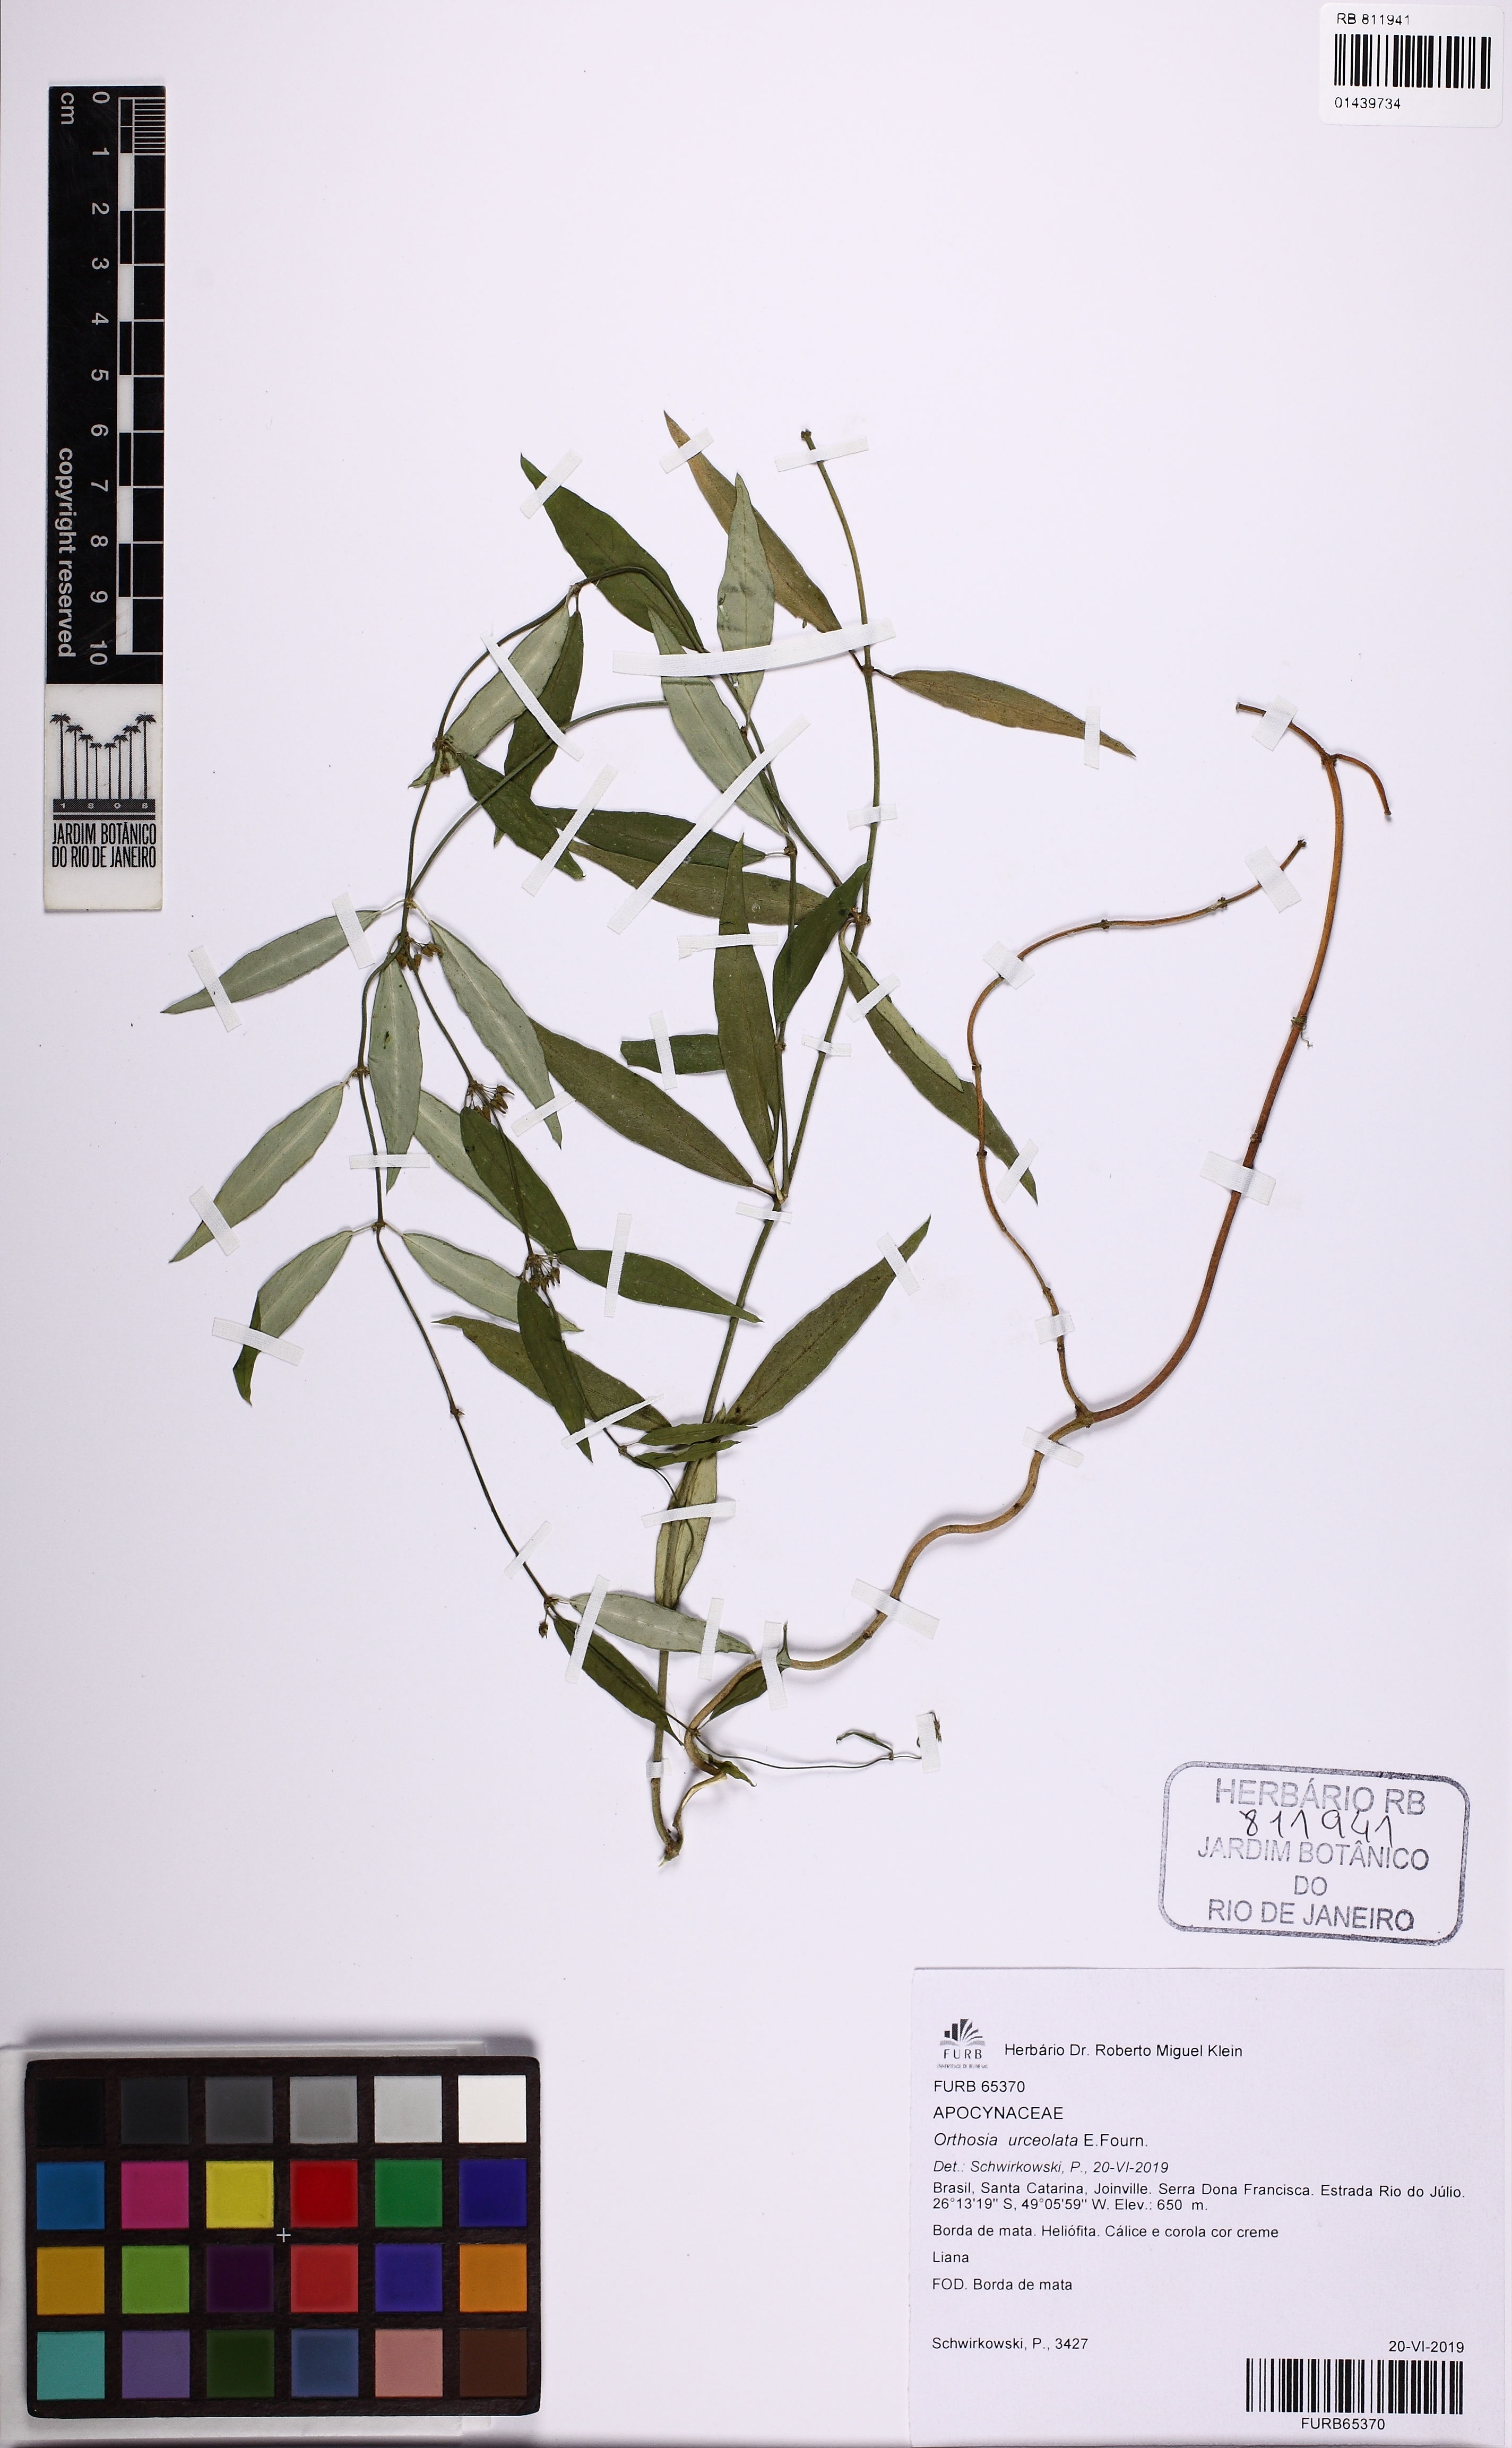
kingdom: Plantae
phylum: Tracheophyta
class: Magnoliopsida
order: Gentianales
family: Apocynaceae
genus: Orthosia
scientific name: Orthosia urceolata
